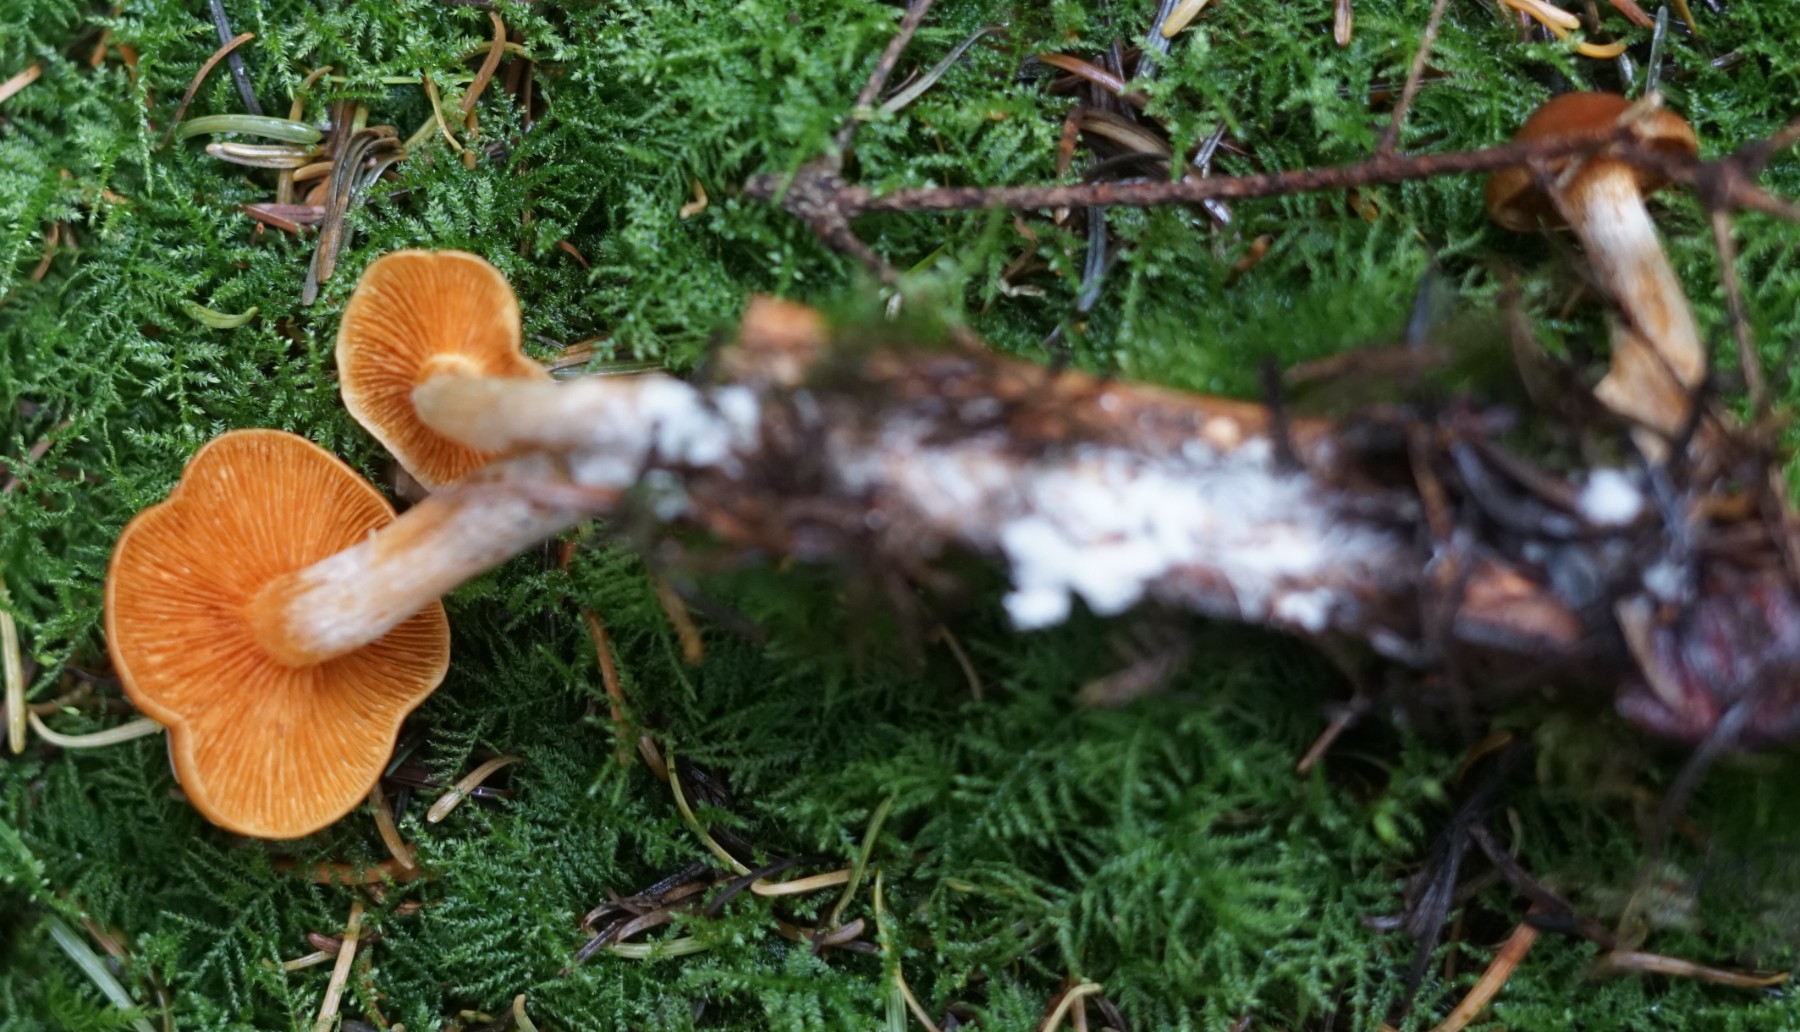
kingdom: Fungi
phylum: Basidiomycota
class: Agaricomycetes
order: Agaricales
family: Hymenogastraceae
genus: Gymnopilus
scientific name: Gymnopilus penetrans
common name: plettet flammehat
